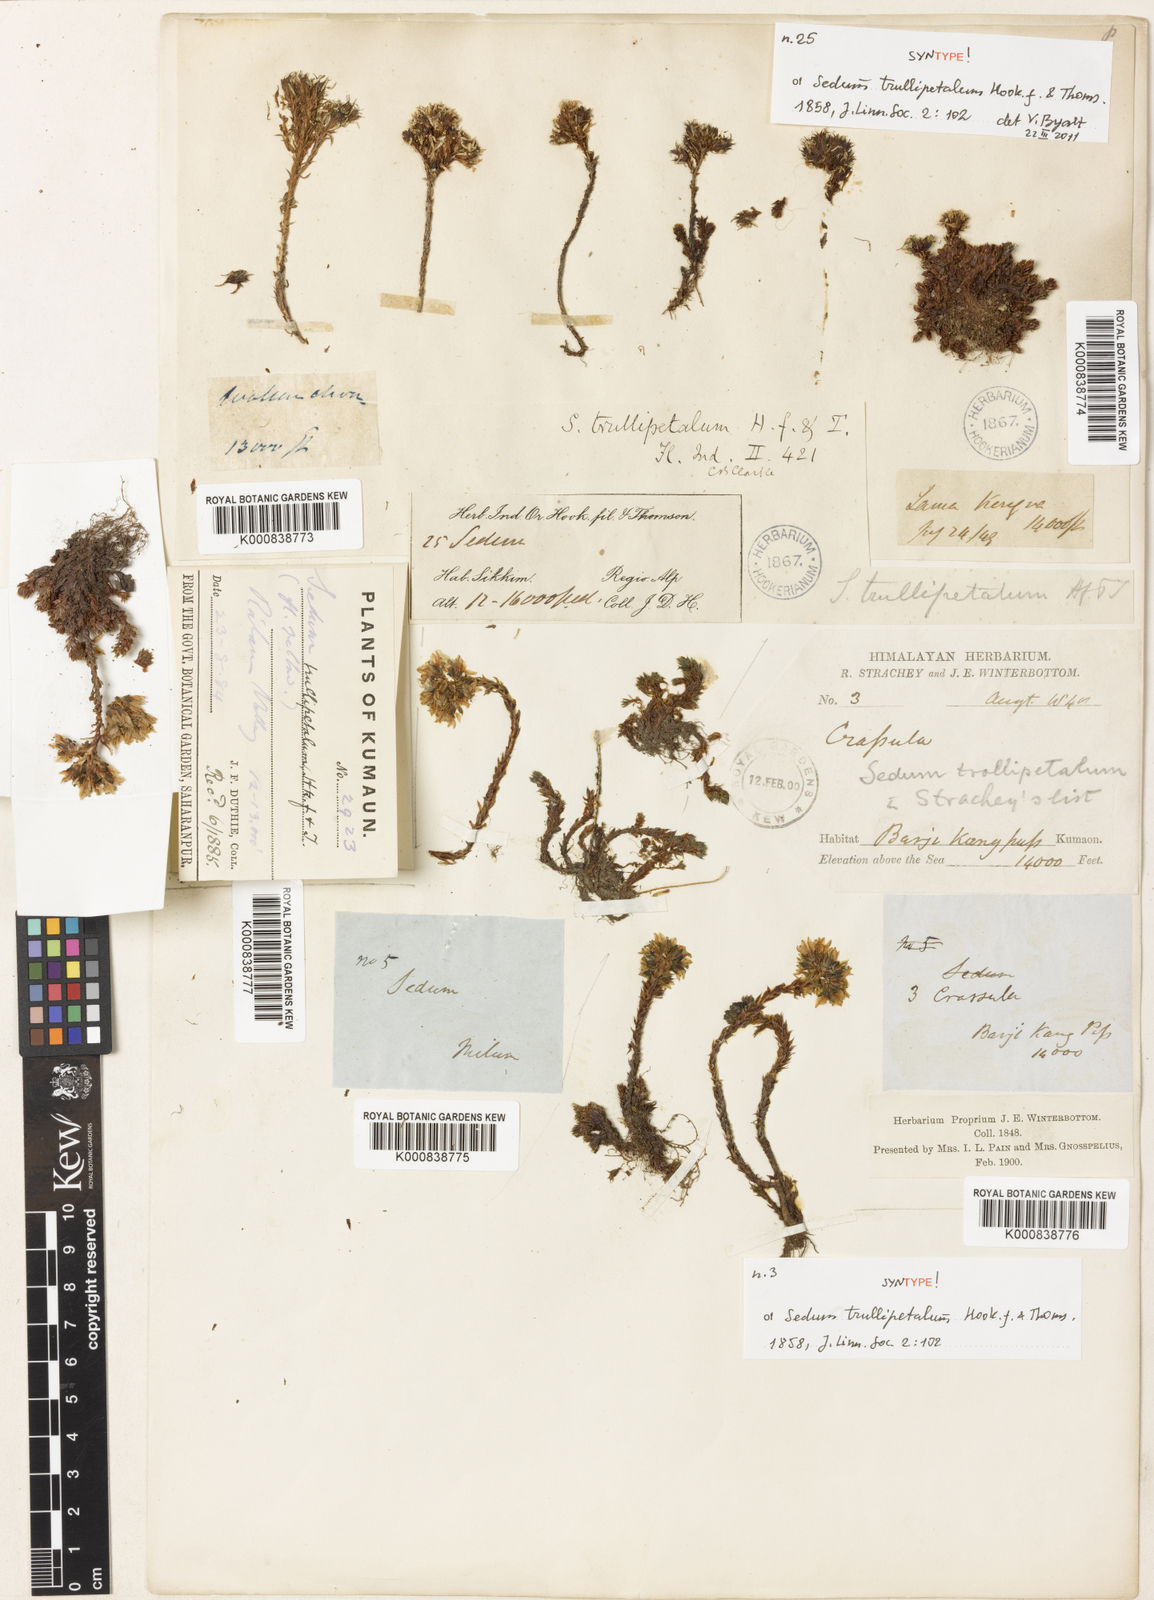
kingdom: Plantae
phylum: Tracheophyta
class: Magnoliopsida
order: Saxifragales
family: Crassulaceae
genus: Sedum
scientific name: Sedum trullipetalum
